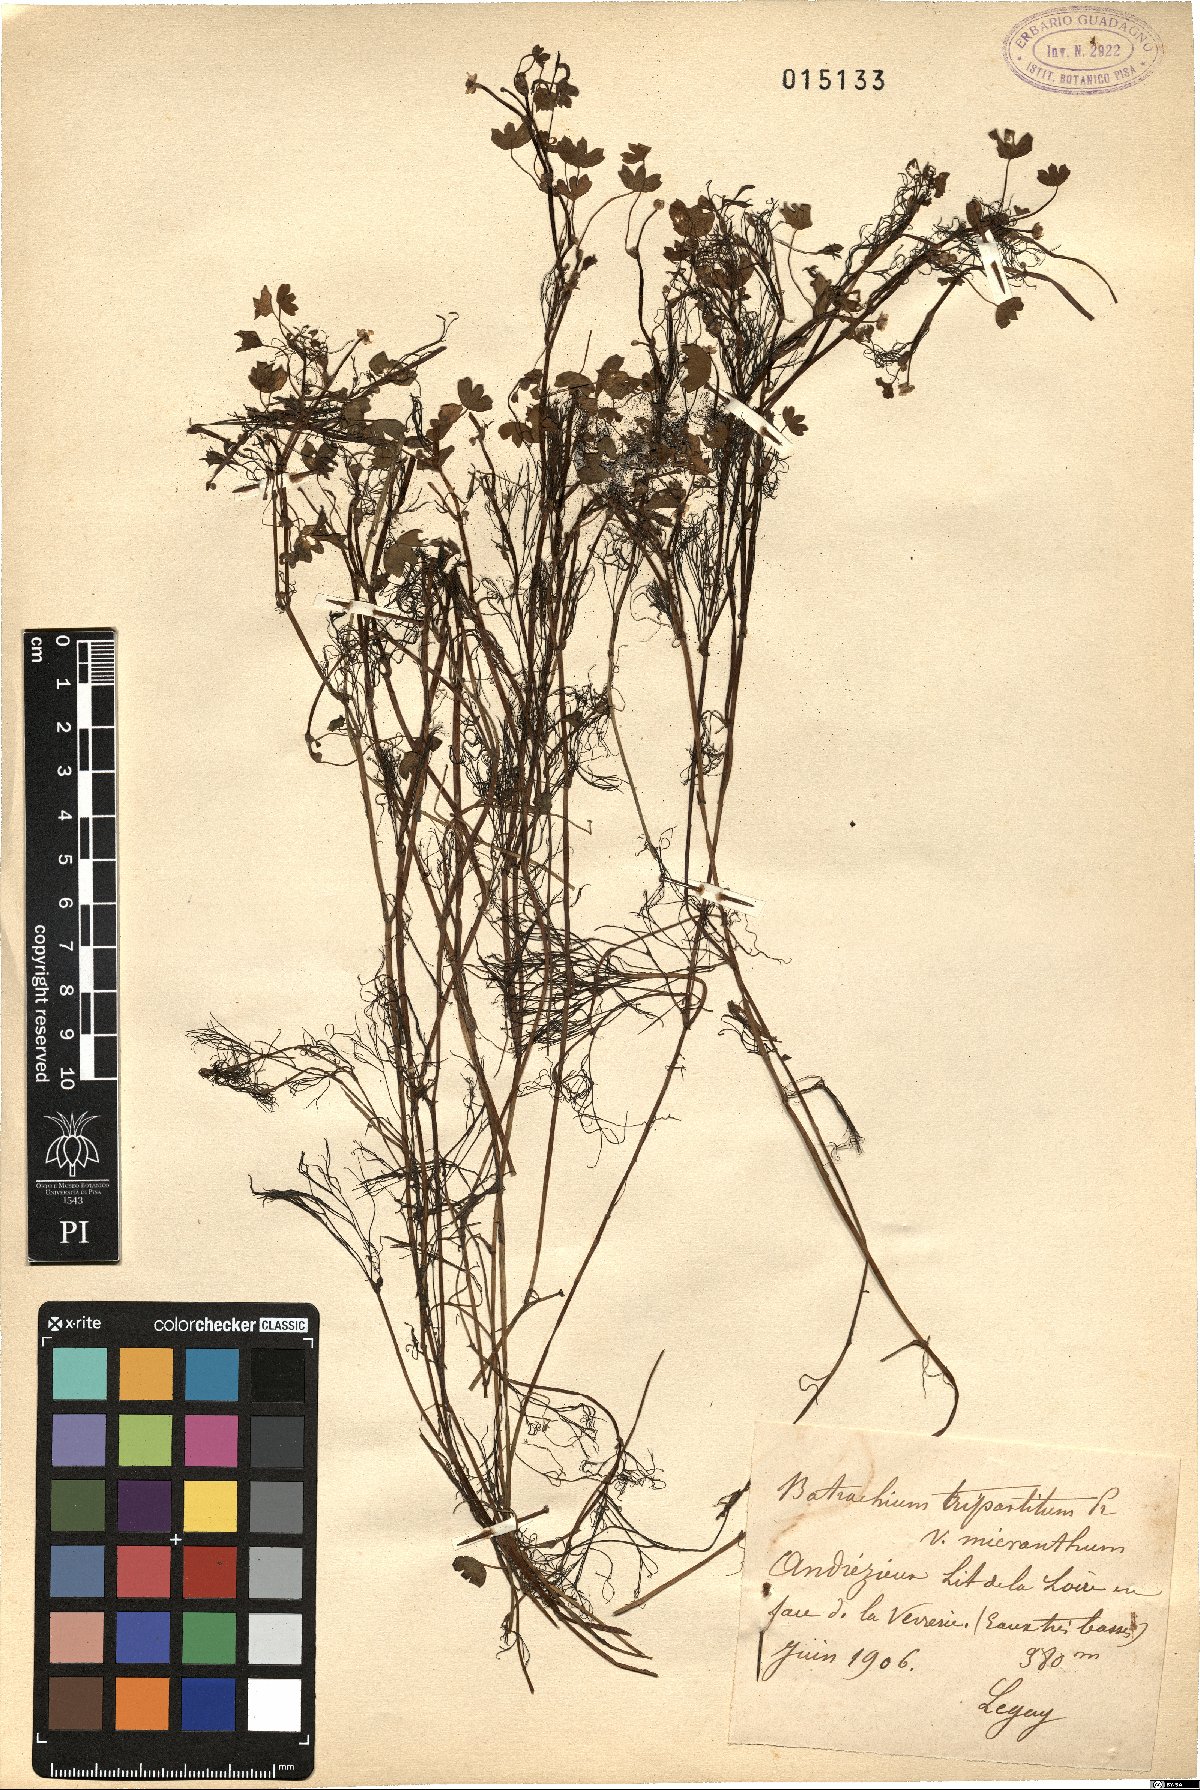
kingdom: Plantae
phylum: Tracheophyta
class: Magnoliopsida
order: Ranunculales
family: Ranunculaceae
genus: Ranunculus
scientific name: Ranunculus tripartitus
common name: Three-lobed crowfoot
